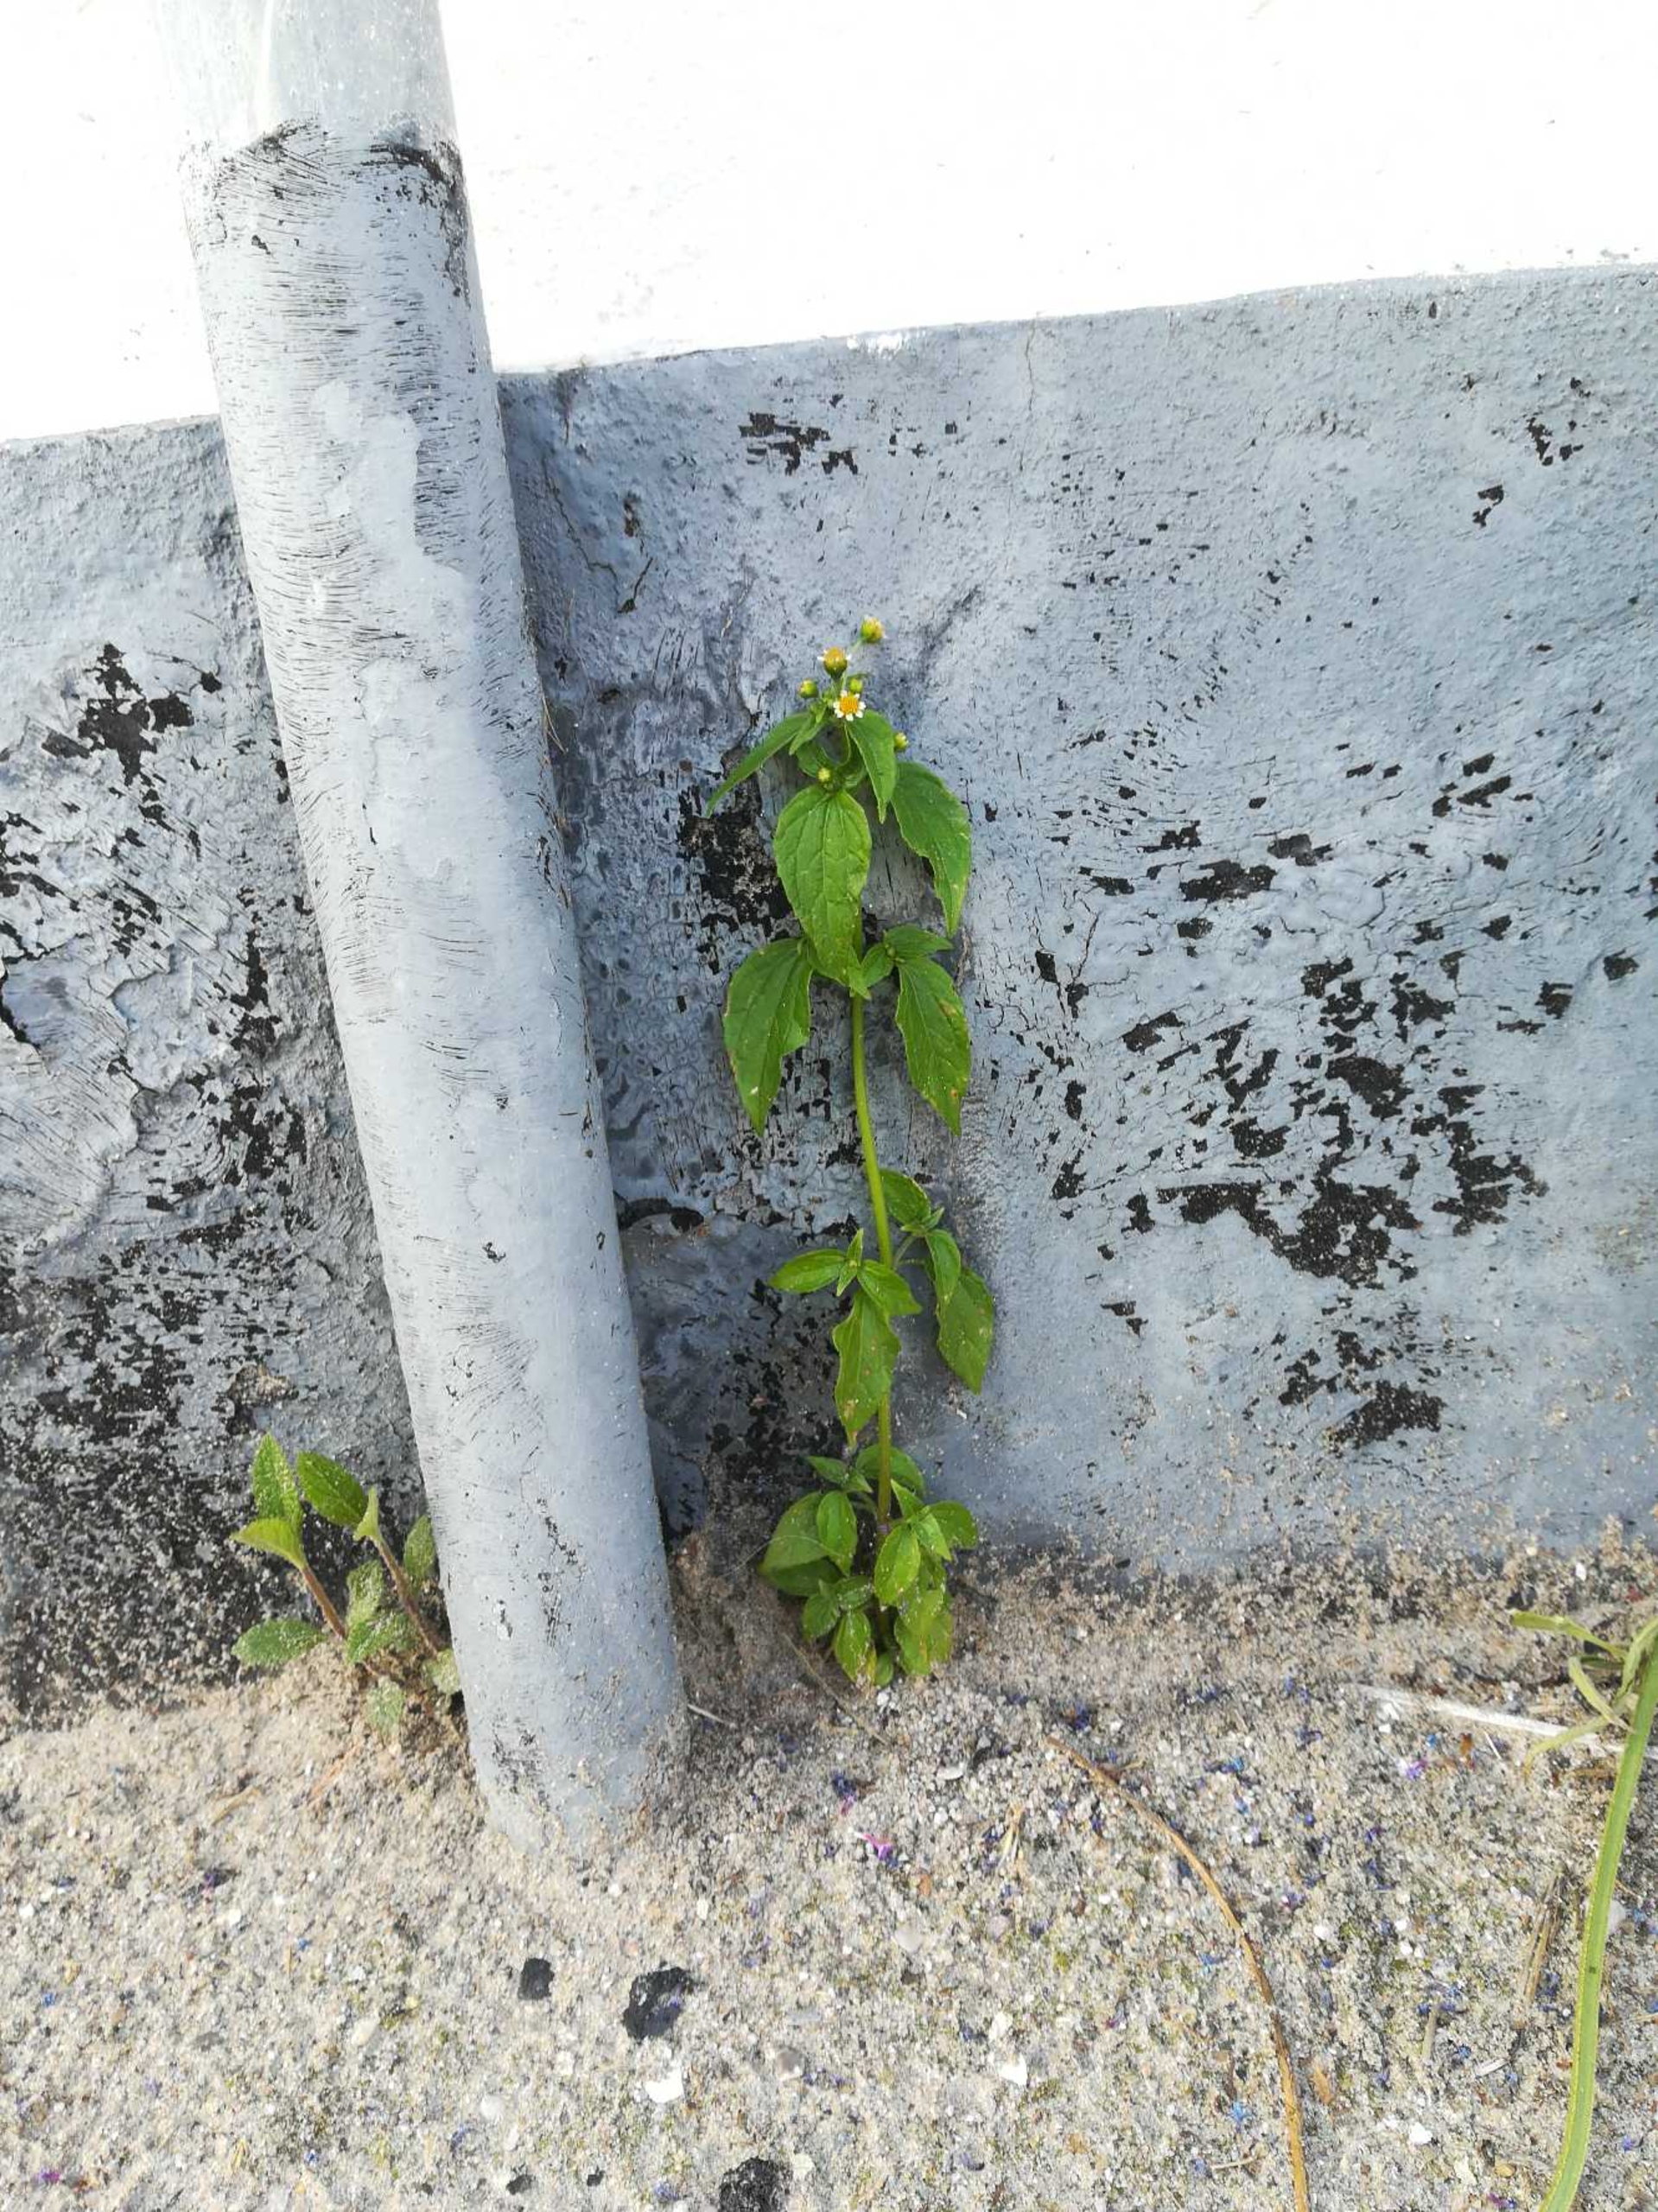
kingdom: Plantae
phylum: Tracheophyta
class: Magnoliopsida
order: Asterales
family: Asteraceae
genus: Galinsoga
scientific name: Galinsoga parviflora
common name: Håret kortstråle
